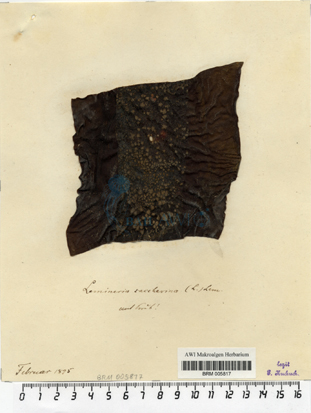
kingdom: Chromista
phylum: Ochrophyta
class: Phaeophyceae
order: Laminariales
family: Laminariaceae
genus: Saccharina
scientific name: Saccharina latissima
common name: Poor man's weather glass
